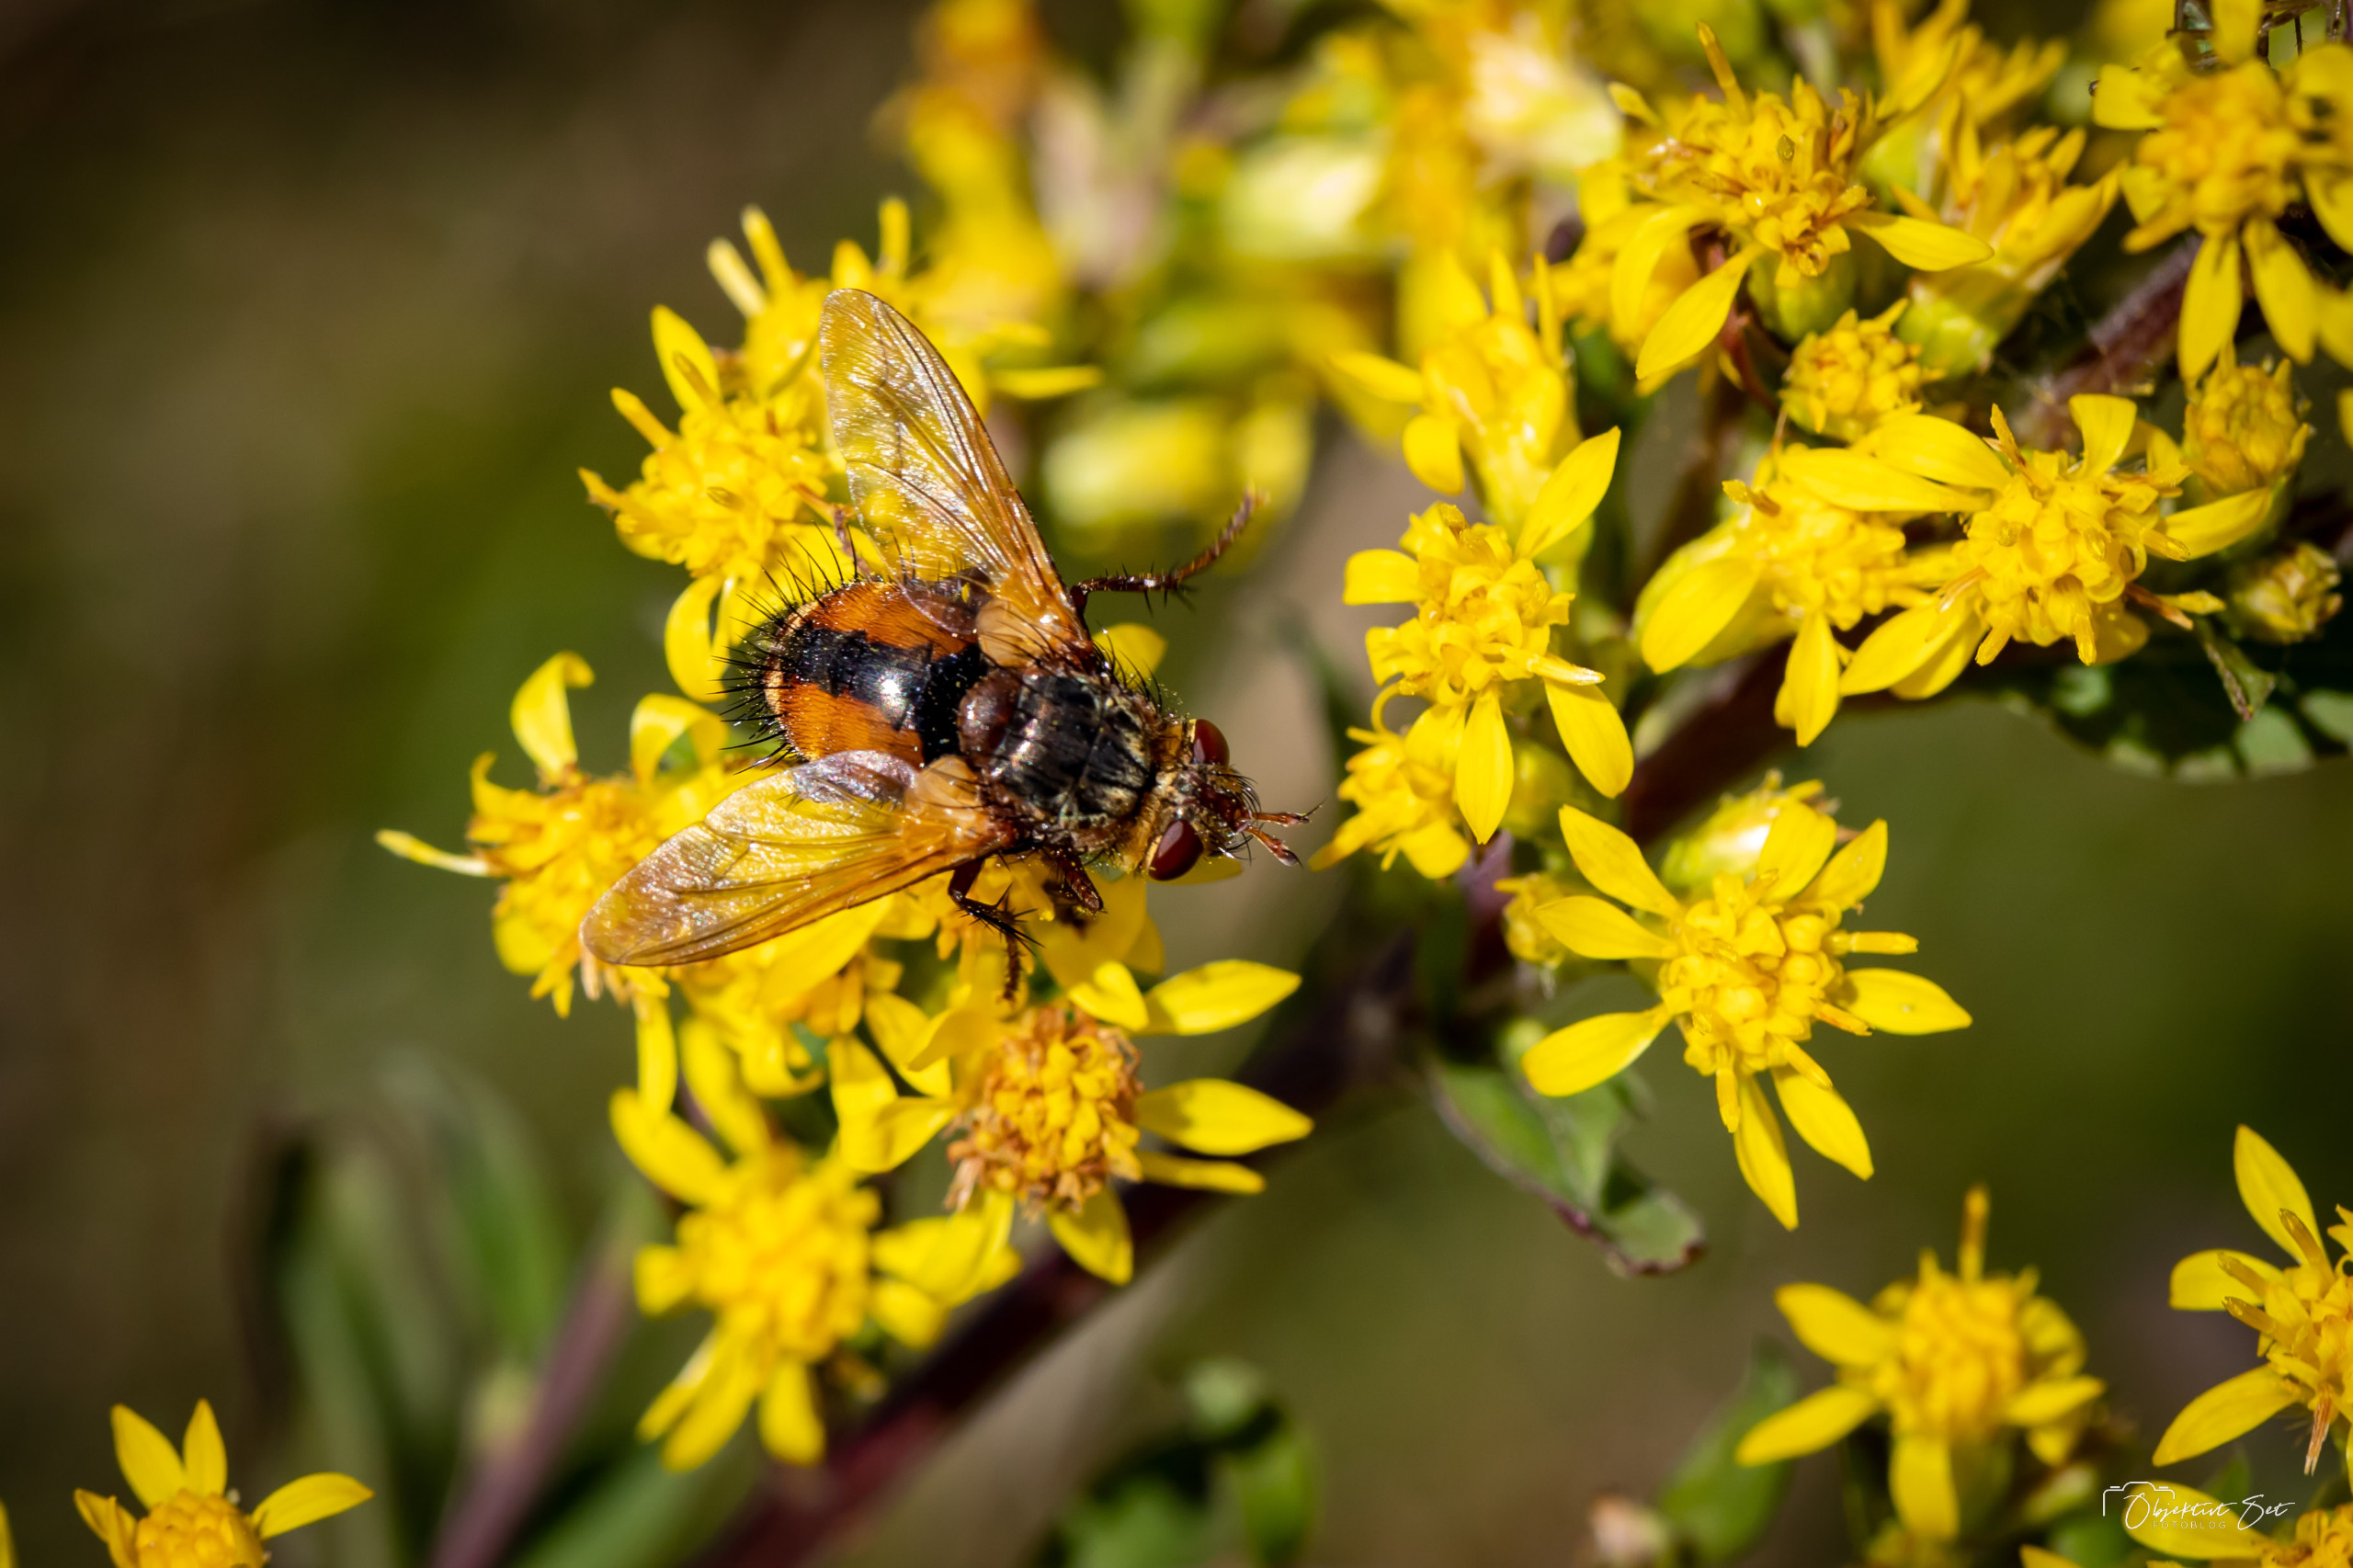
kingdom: Animalia
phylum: Arthropoda
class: Insecta
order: Diptera
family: Tachinidae
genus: Tachina
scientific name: Tachina fera
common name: Mellemfluen oskar
